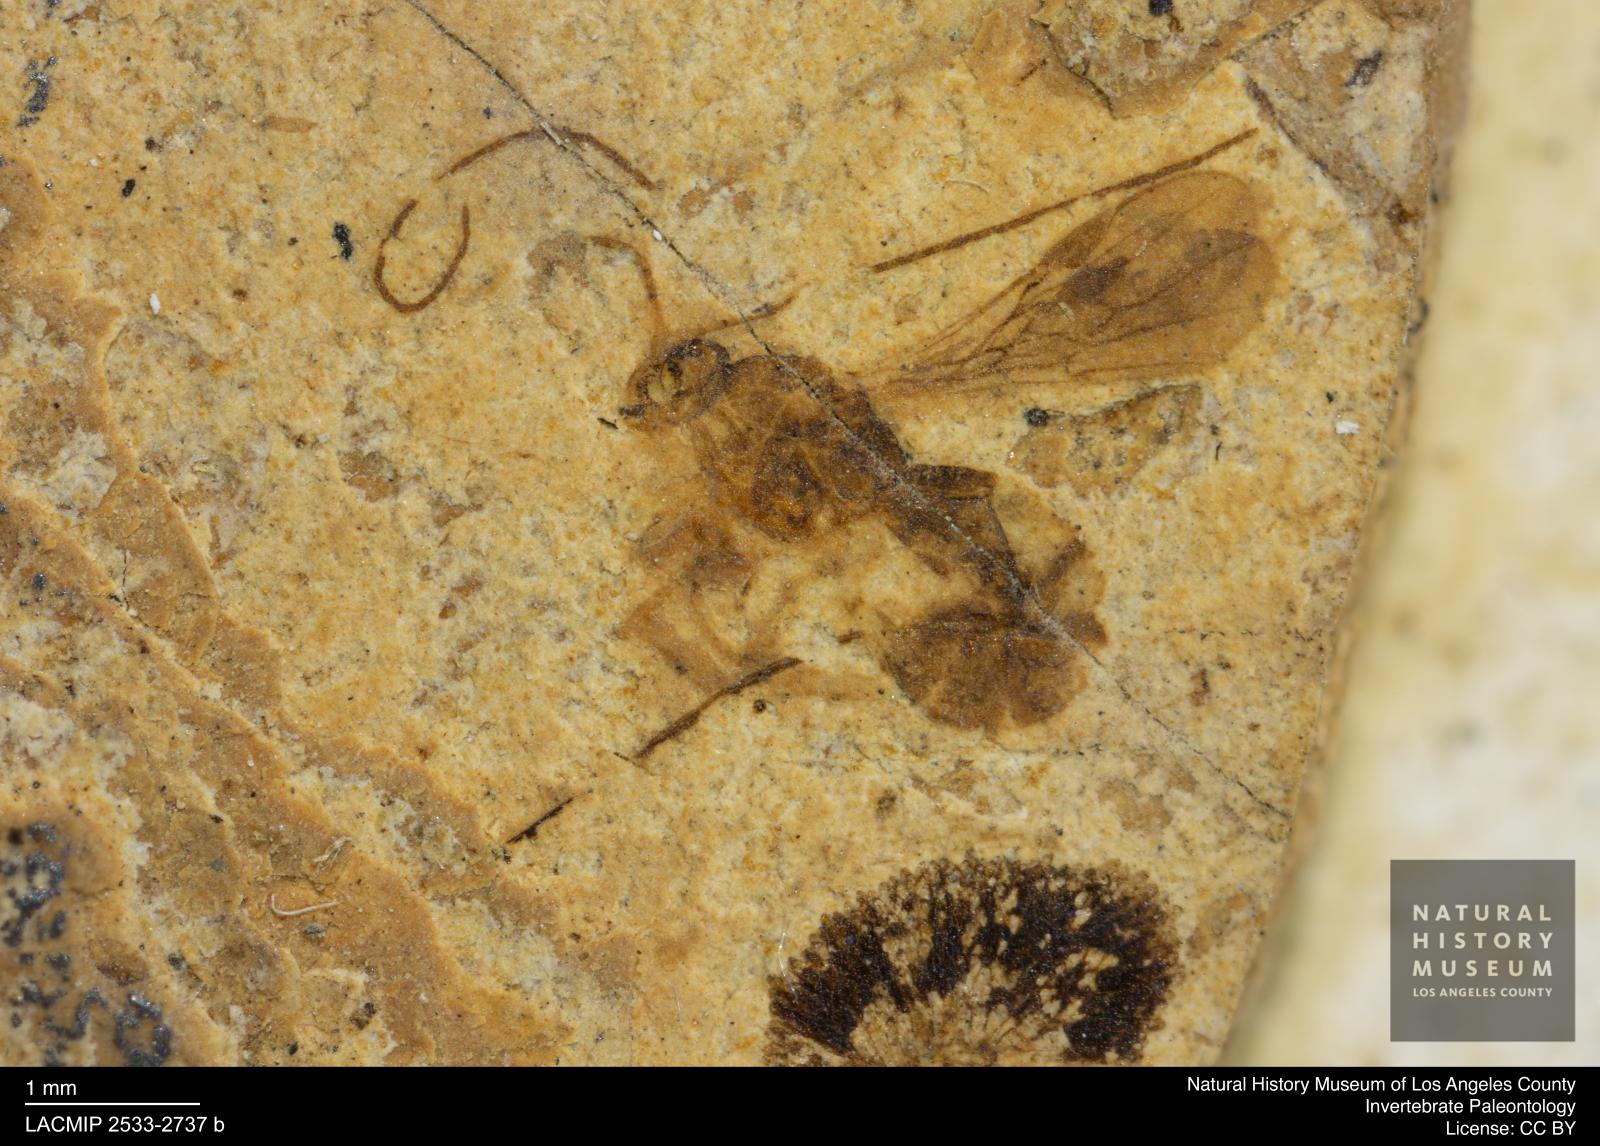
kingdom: Animalia
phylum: Arthropoda
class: Insecta
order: Hymenoptera
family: Braconidae
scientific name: Braconidae
